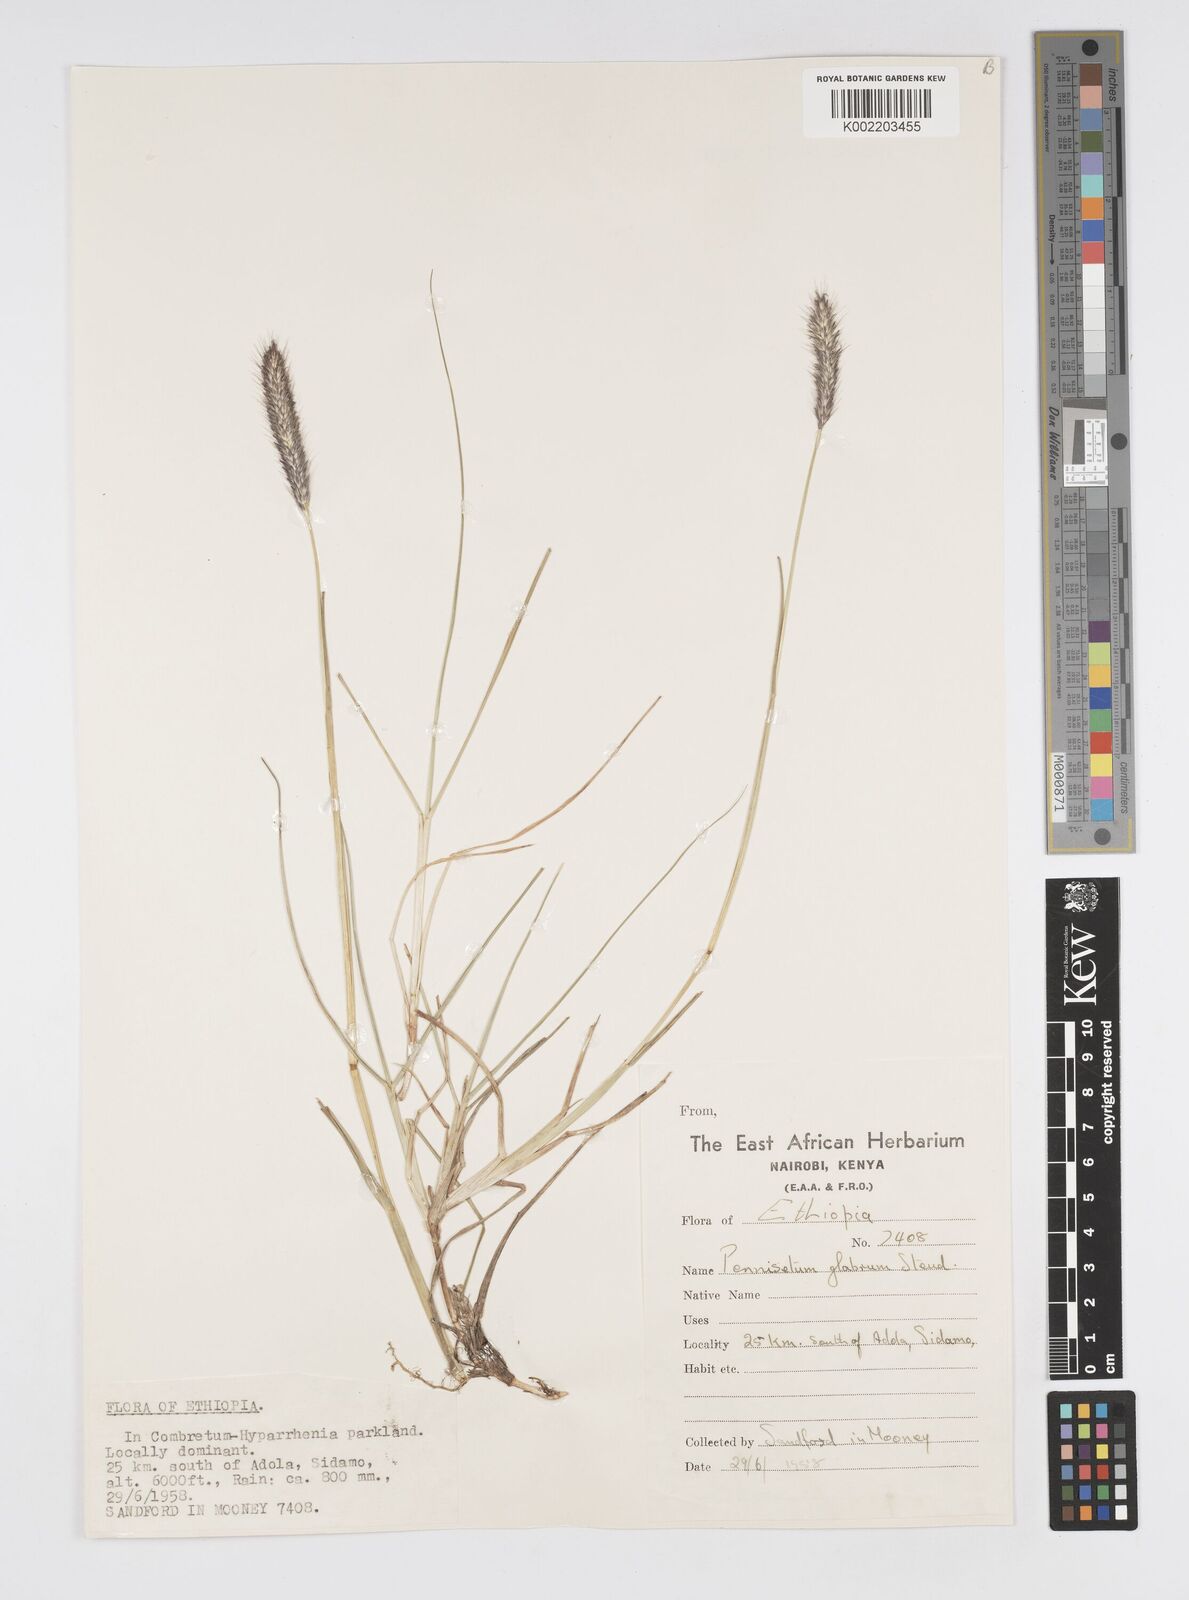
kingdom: Plantae
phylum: Tracheophyta
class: Liliopsida
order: Poales
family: Poaceae
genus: Cenchrus
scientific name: Cenchrus geniculatus
